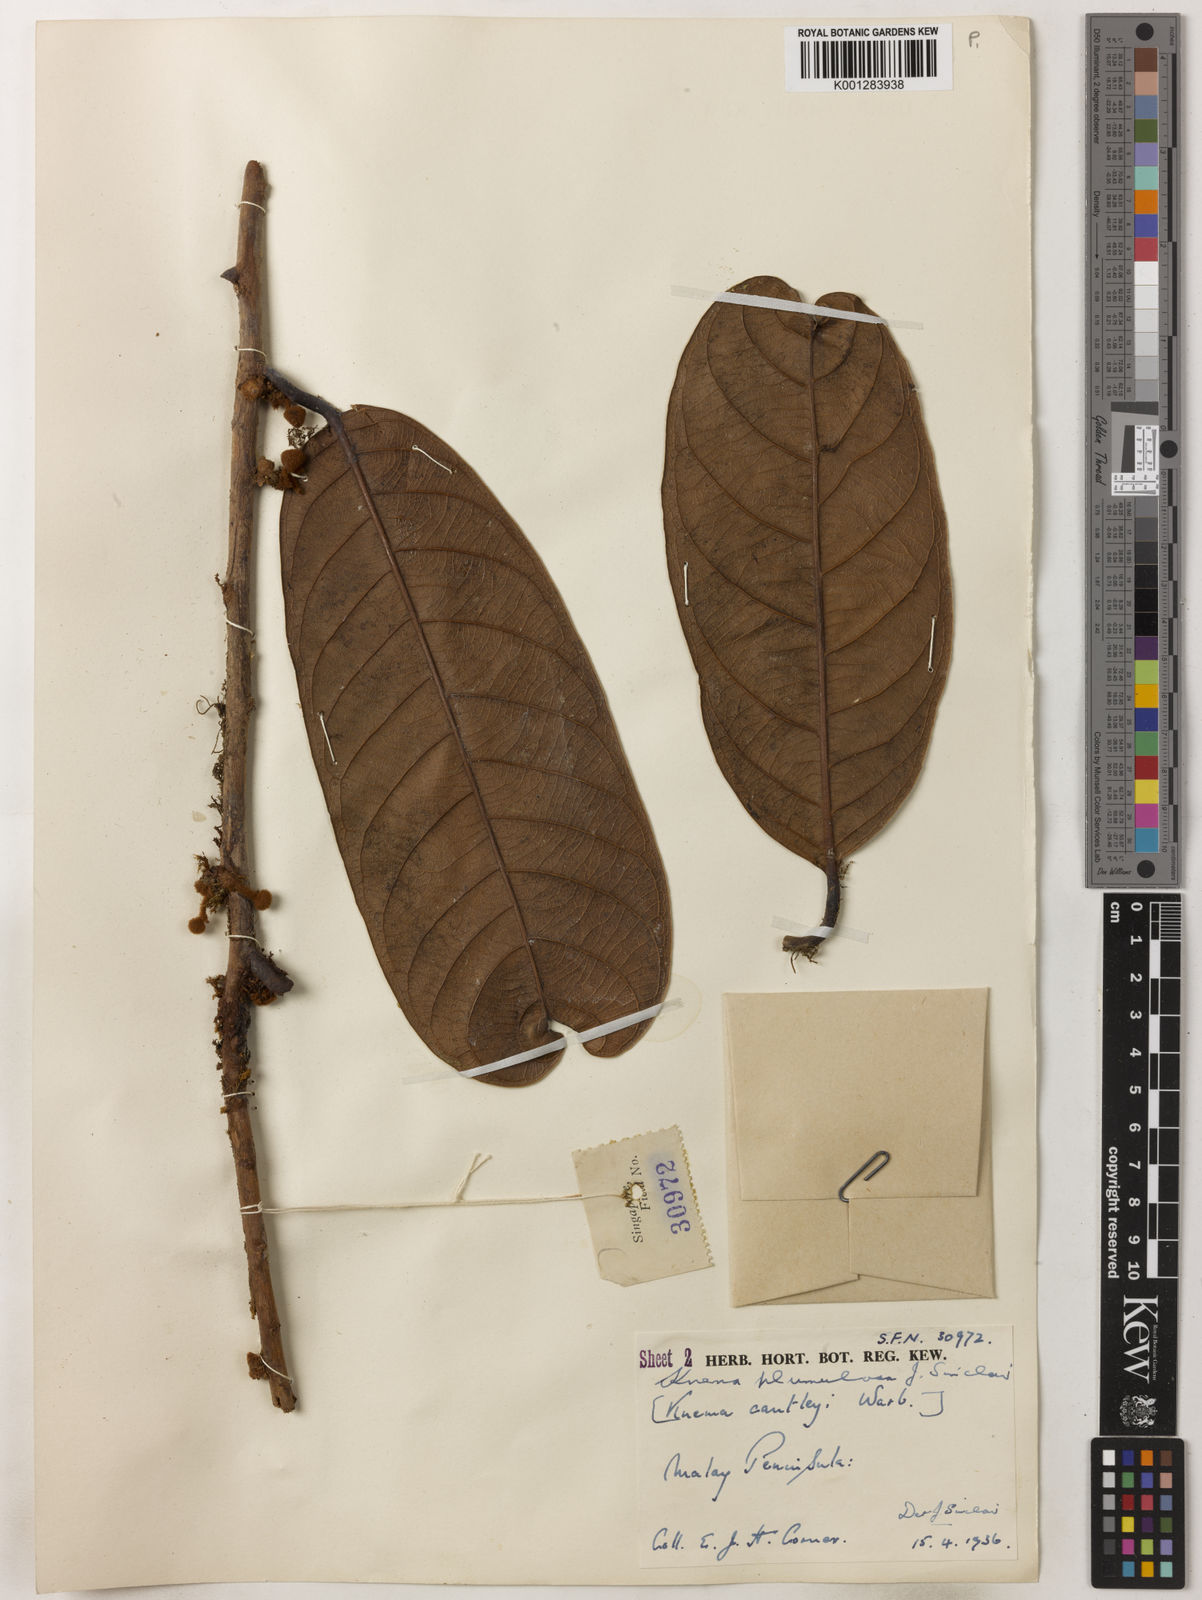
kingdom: Plantae
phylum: Tracheophyta
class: Magnoliopsida
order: Magnoliales
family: Myristicaceae
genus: Knema
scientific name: Knema plumulosa
